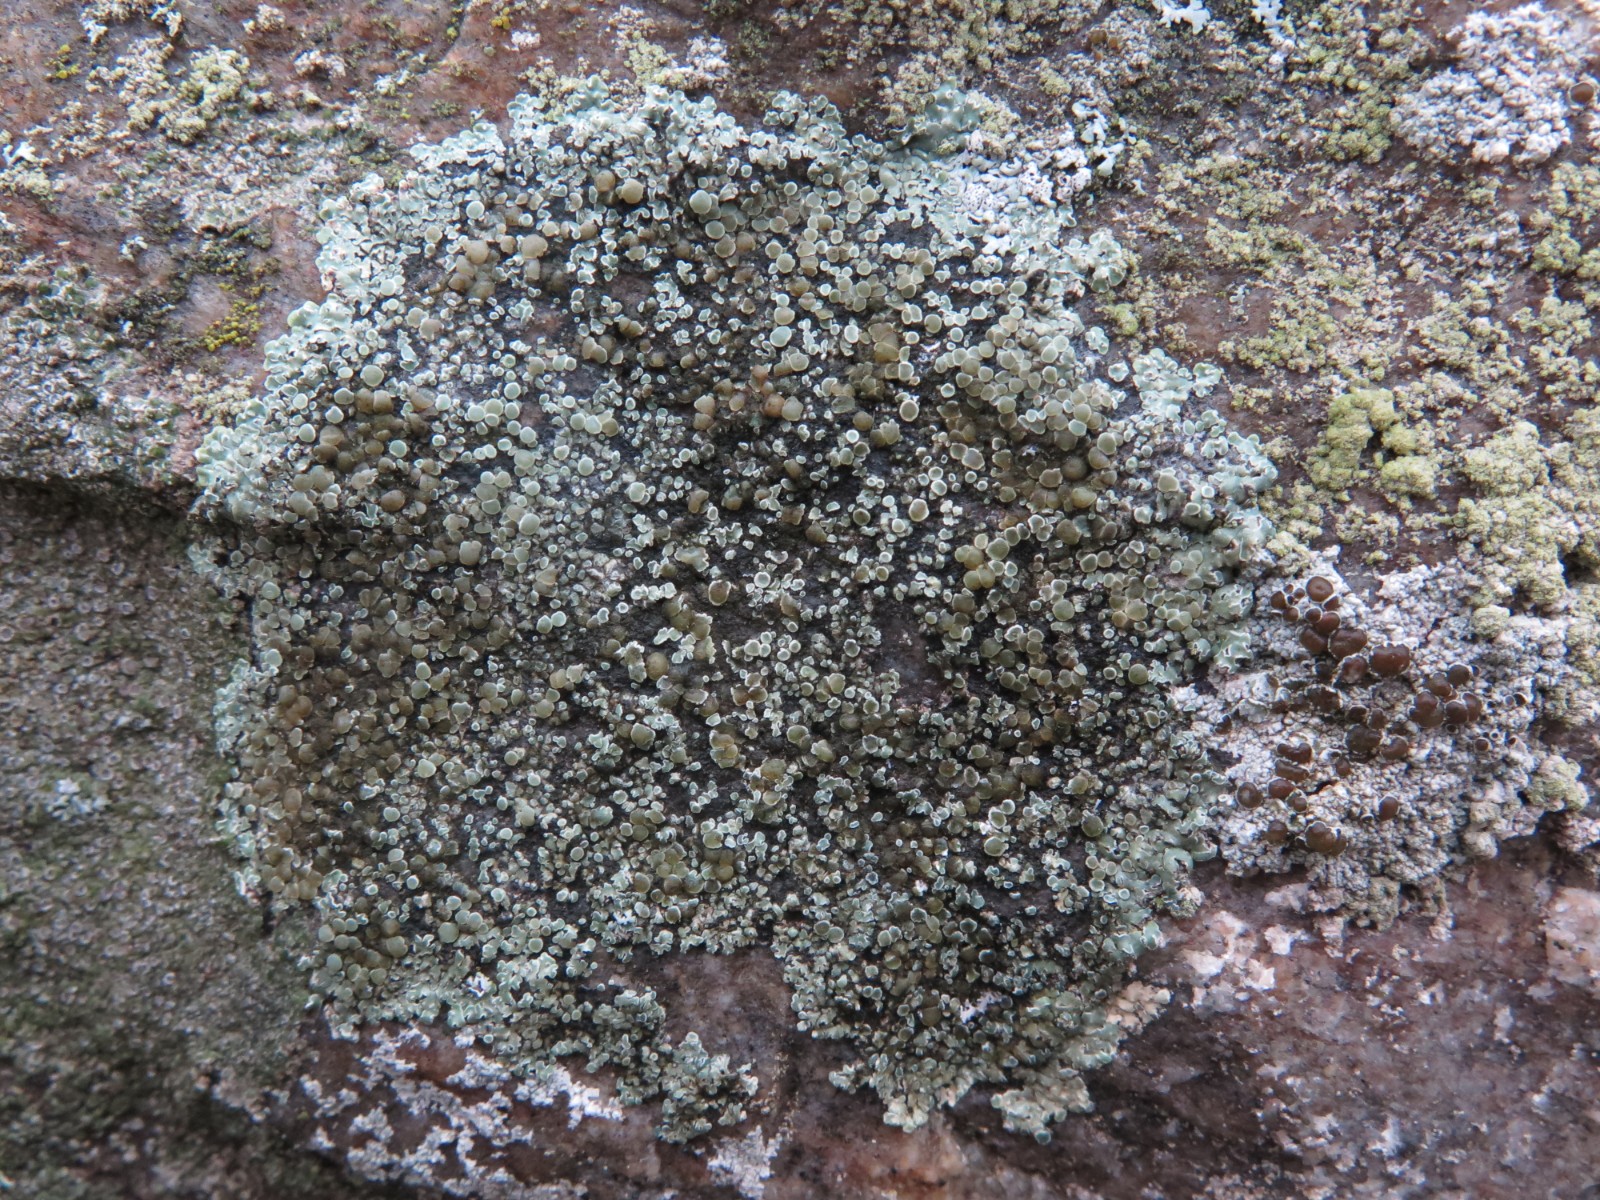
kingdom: Fungi
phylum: Ascomycota
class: Lecanoromycetes
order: Lecanorales
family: Lecanoraceae
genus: Protoparmeliopsis
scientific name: Protoparmeliopsis muralis
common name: randfliget kantskivelav
